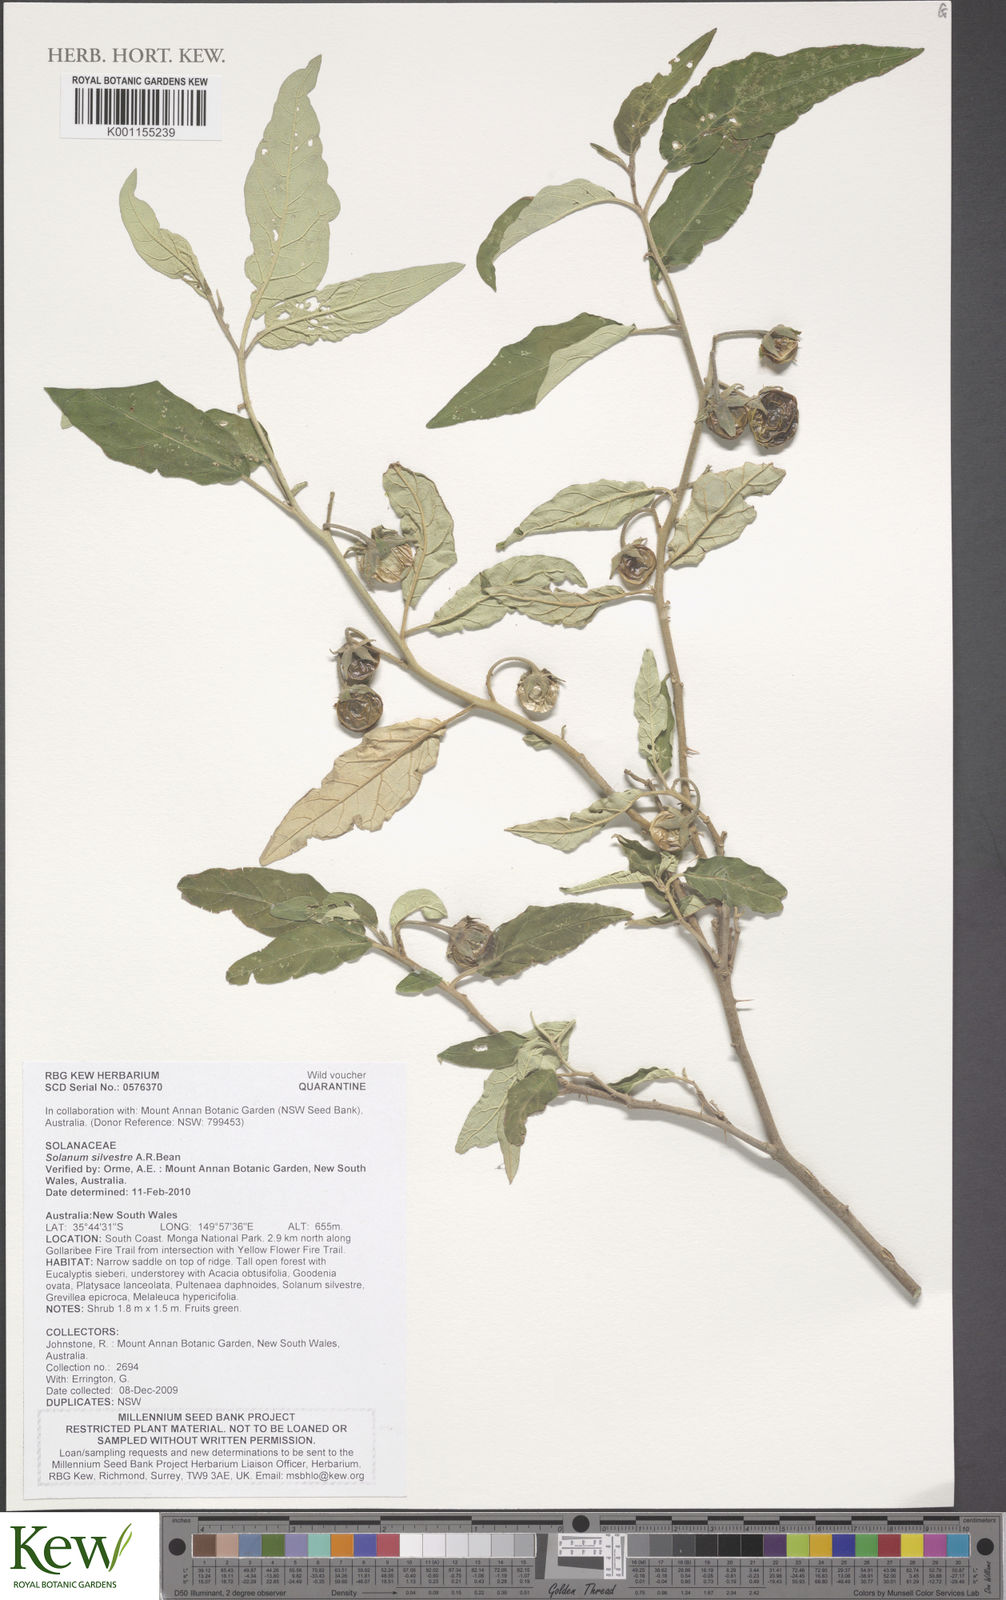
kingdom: Plantae
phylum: Tracheophyta
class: Magnoliopsida
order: Solanales
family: Solanaceae
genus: Solanum
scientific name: Solanum silvestre
